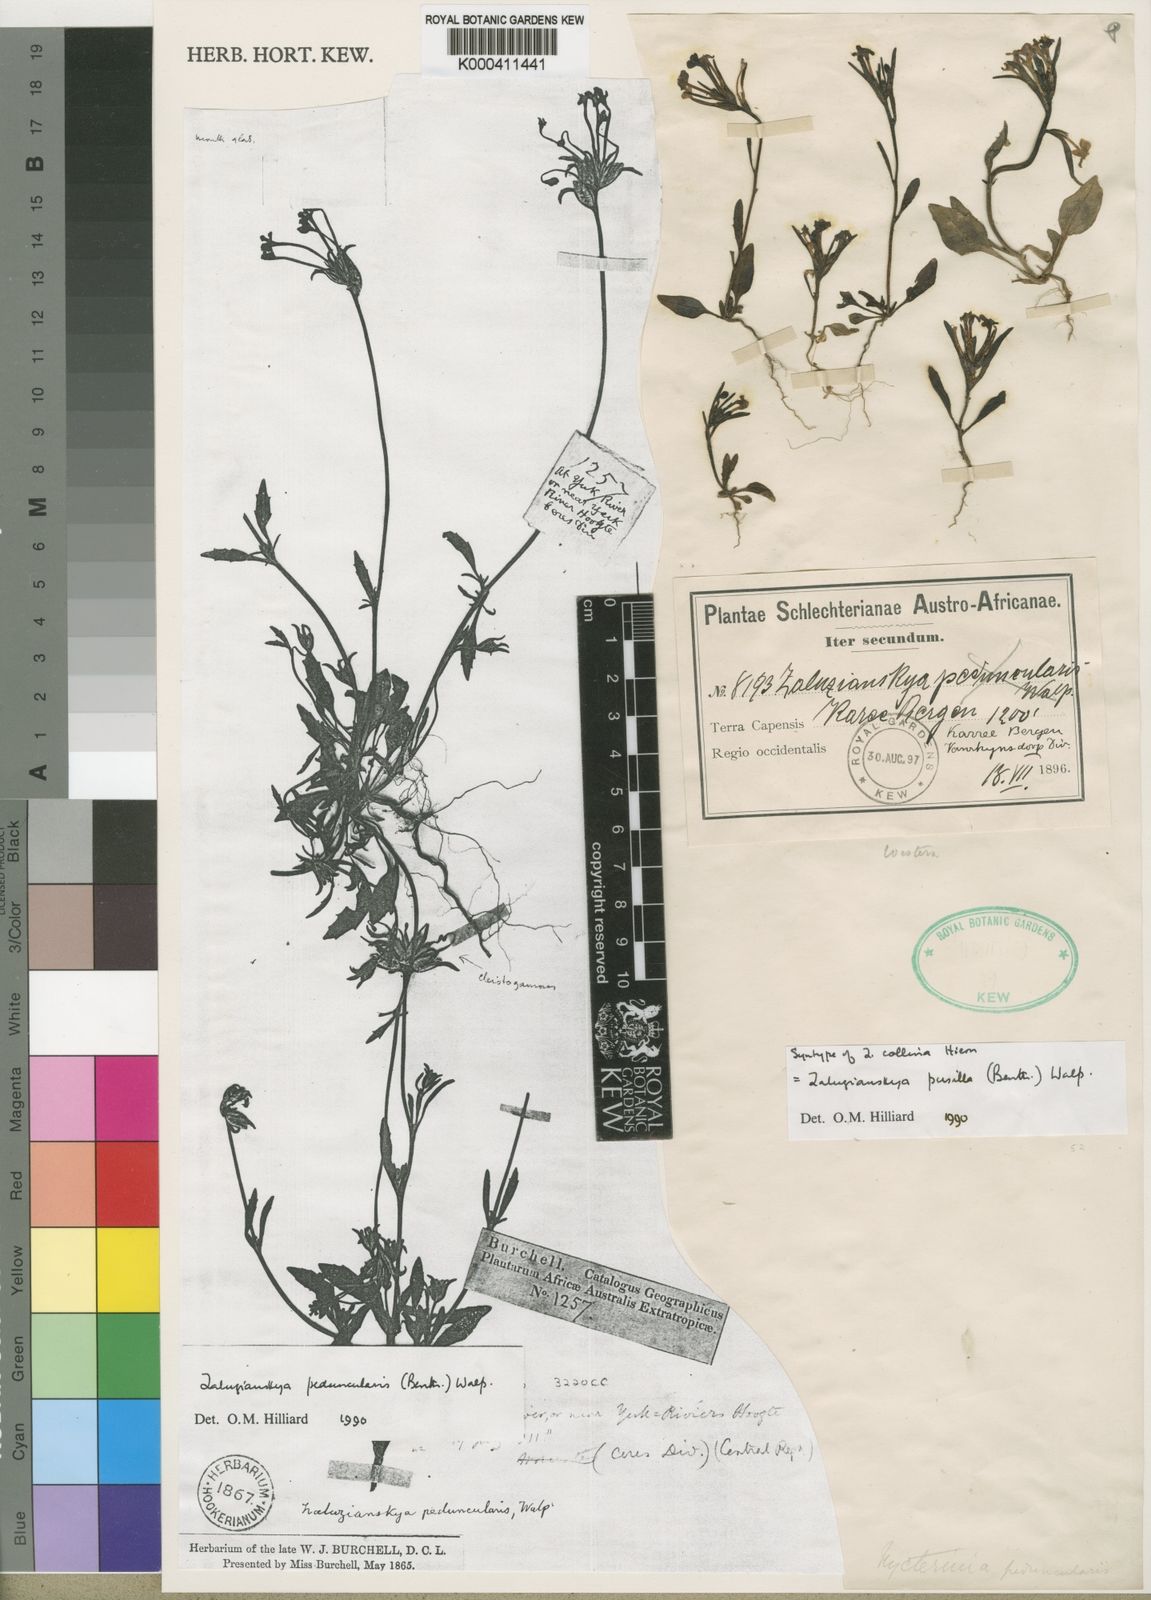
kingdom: Plantae
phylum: Tracheophyta
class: Magnoliopsida
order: Lamiales
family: Scrophulariaceae
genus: Zaluzianskya
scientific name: Zaluzianskya pusilla
